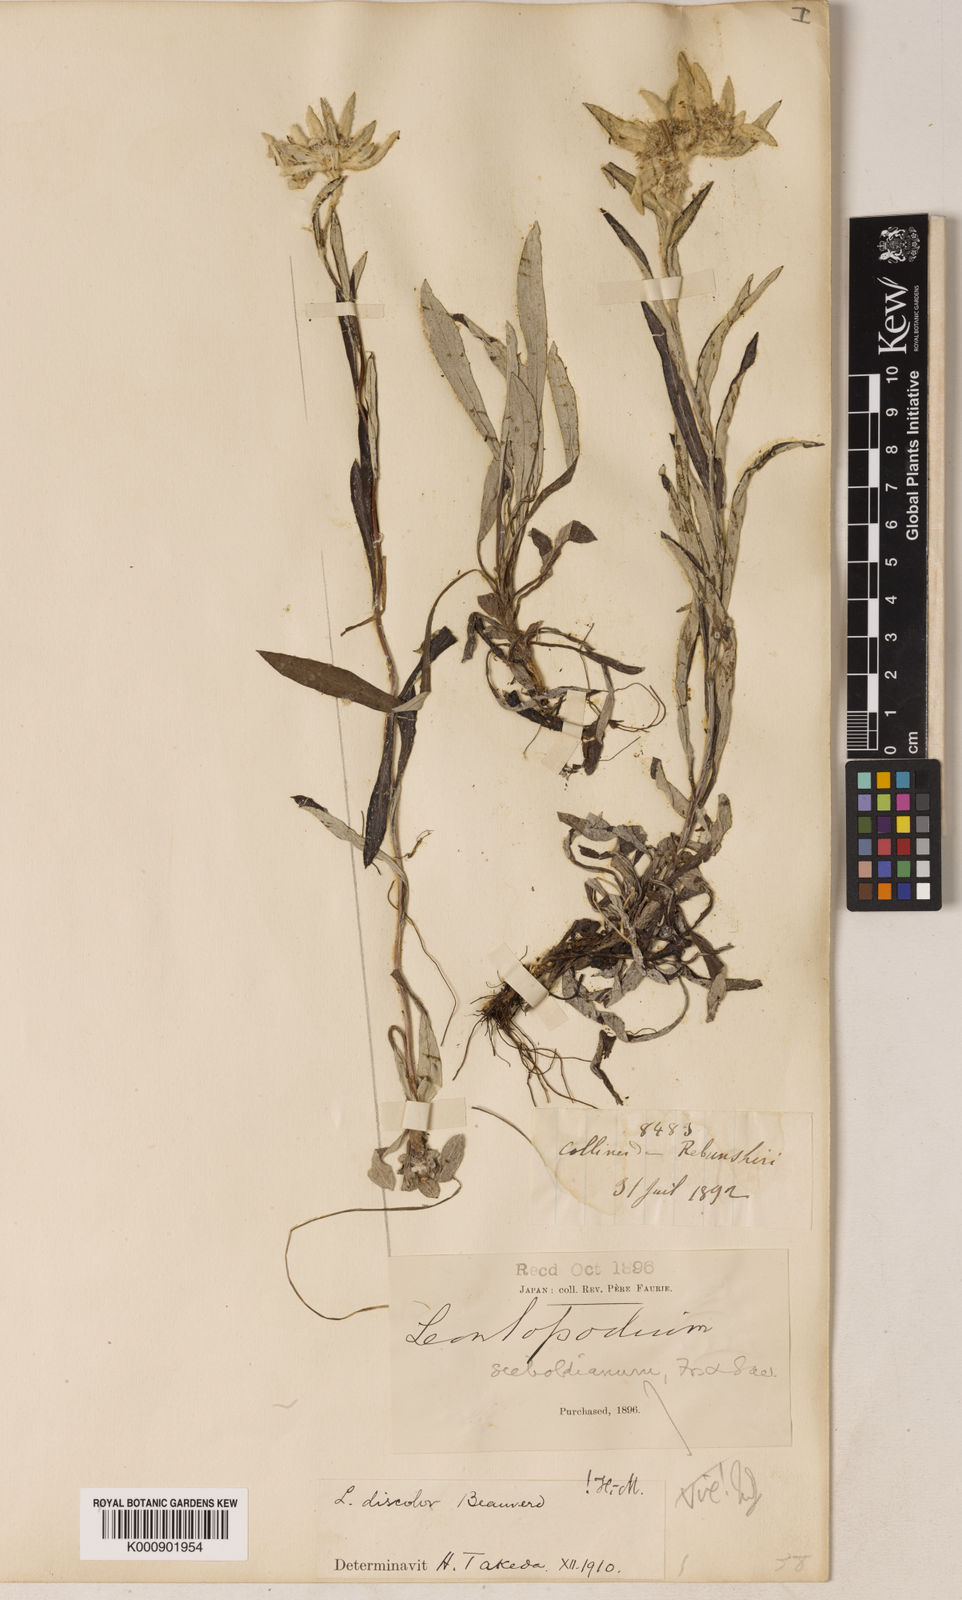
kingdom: Plantae
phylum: Tracheophyta
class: Magnoliopsida
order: Asterales
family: Asteraceae
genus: Leontopodium
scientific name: Leontopodium discolor
